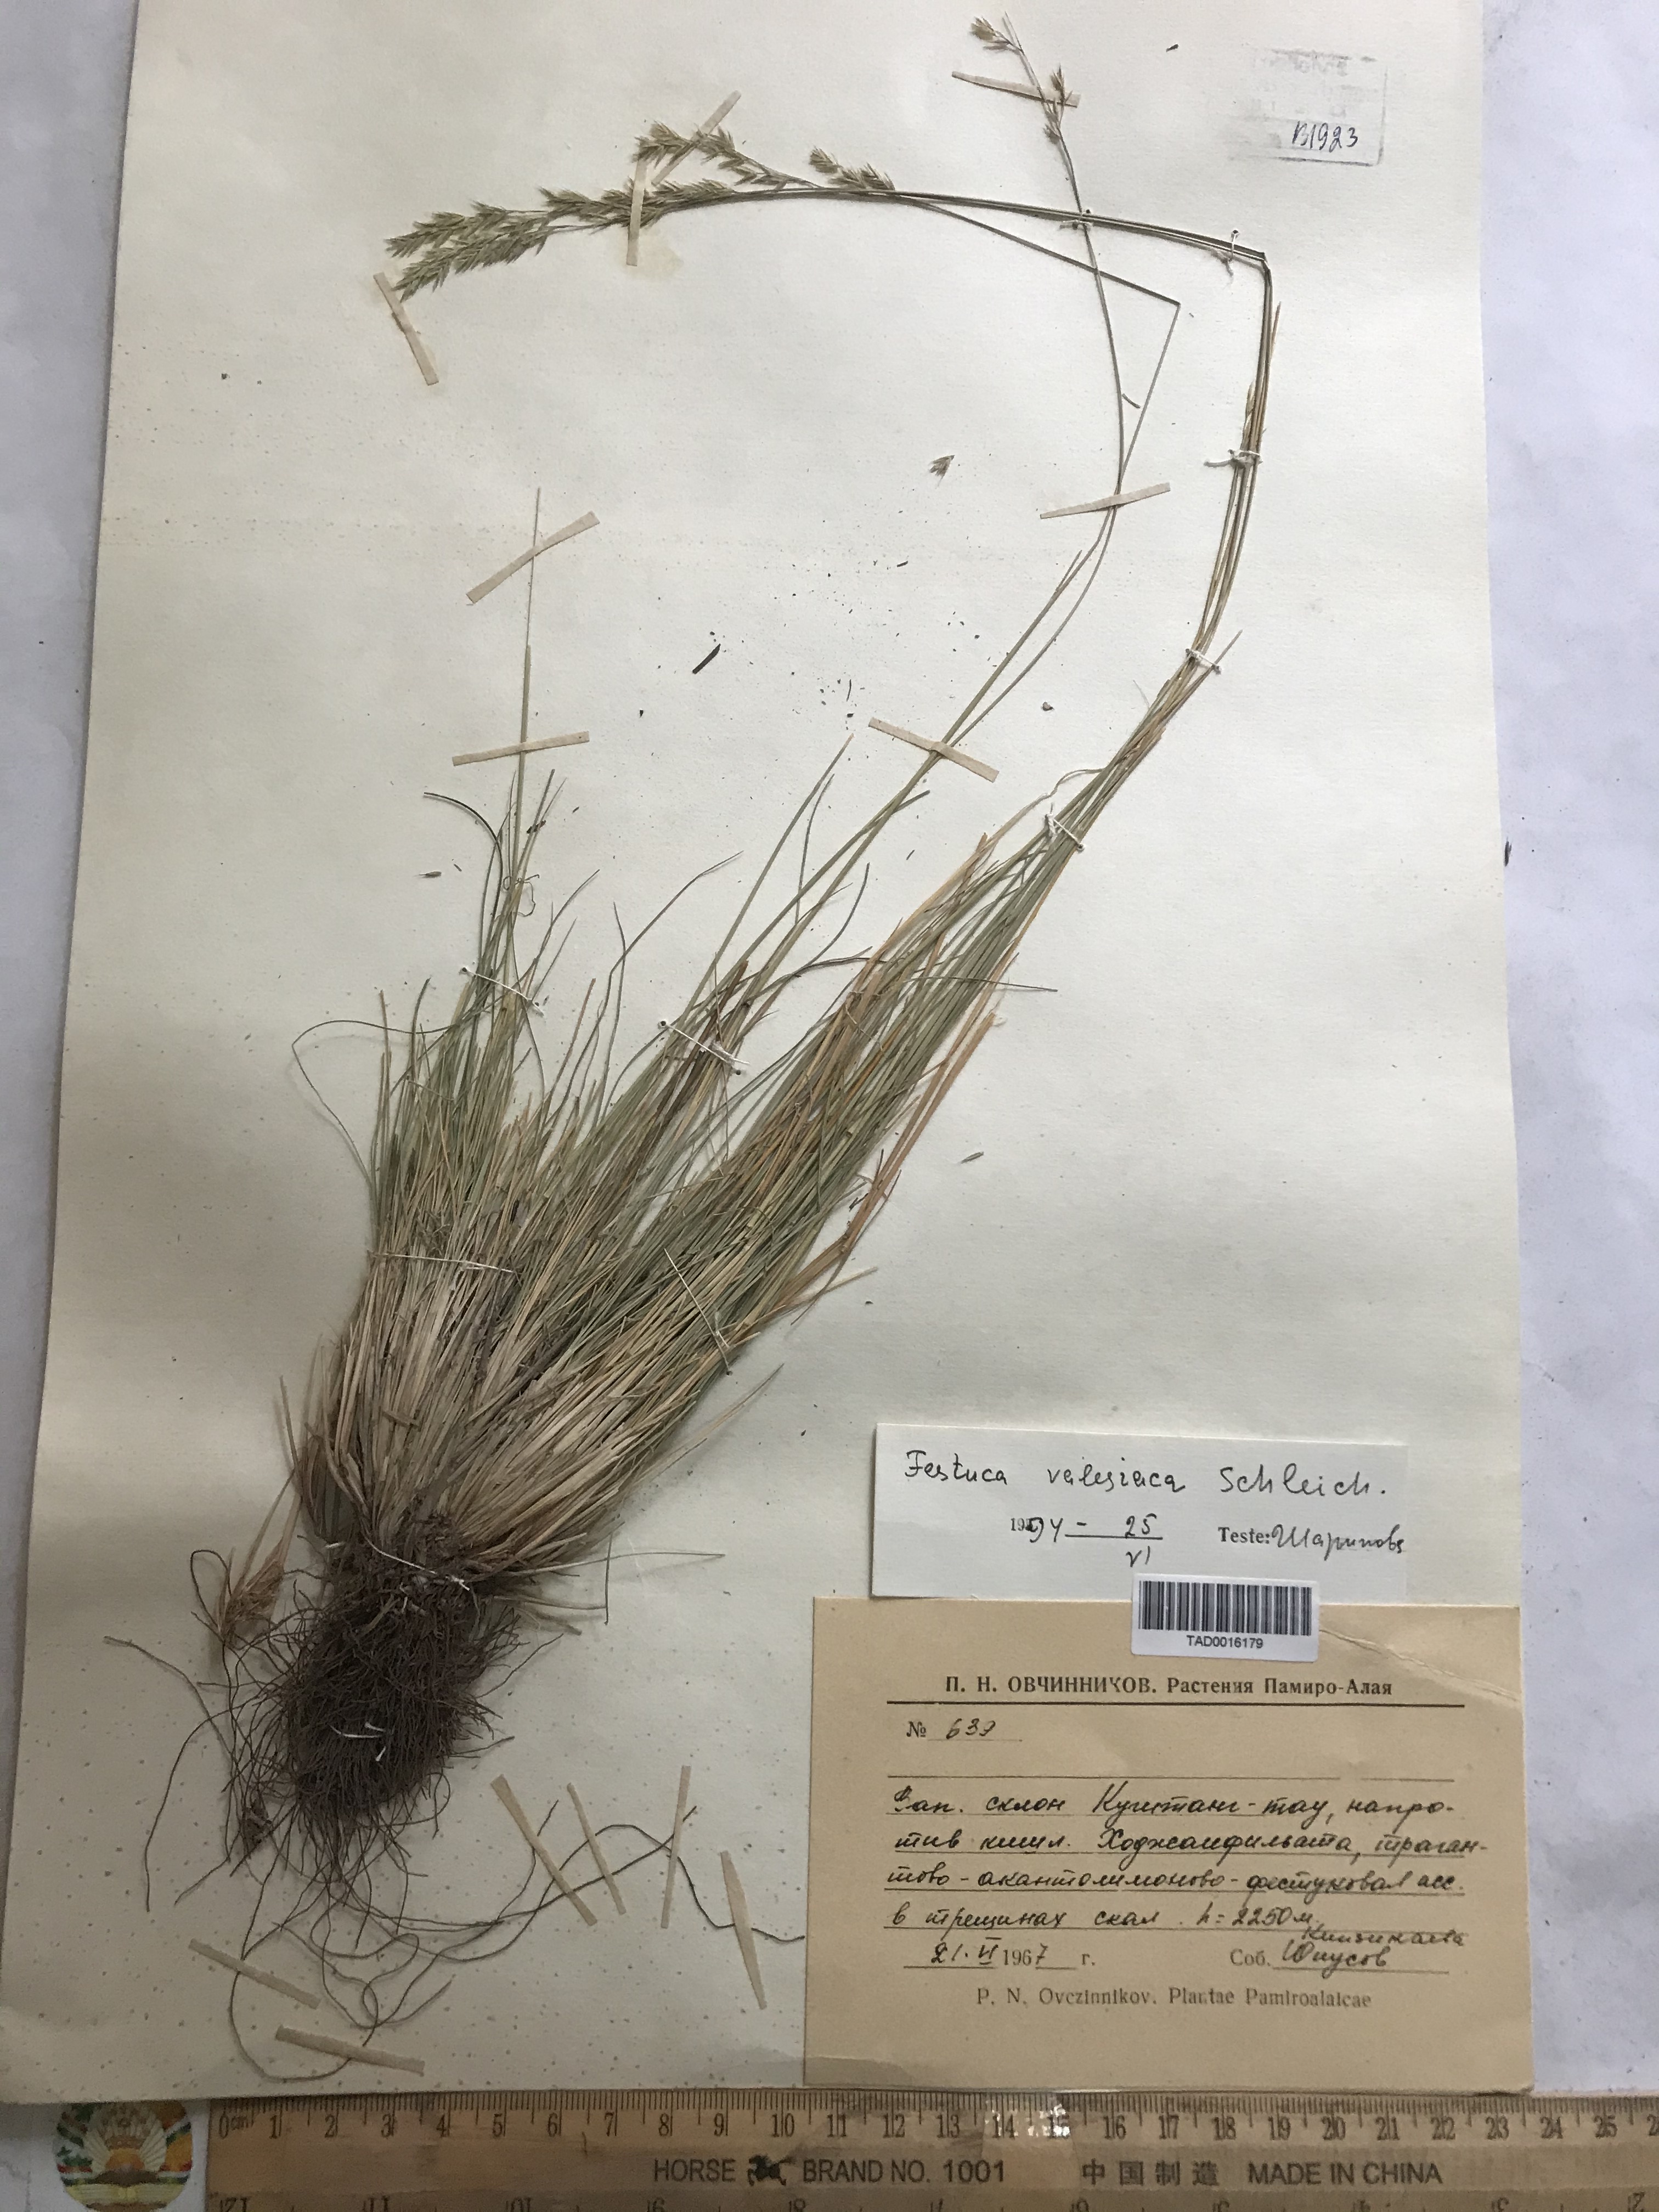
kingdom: Plantae
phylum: Tracheophyta
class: Liliopsida
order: Poales
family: Poaceae
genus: Festuca
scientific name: Festuca valesiaca
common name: Volga fescue
